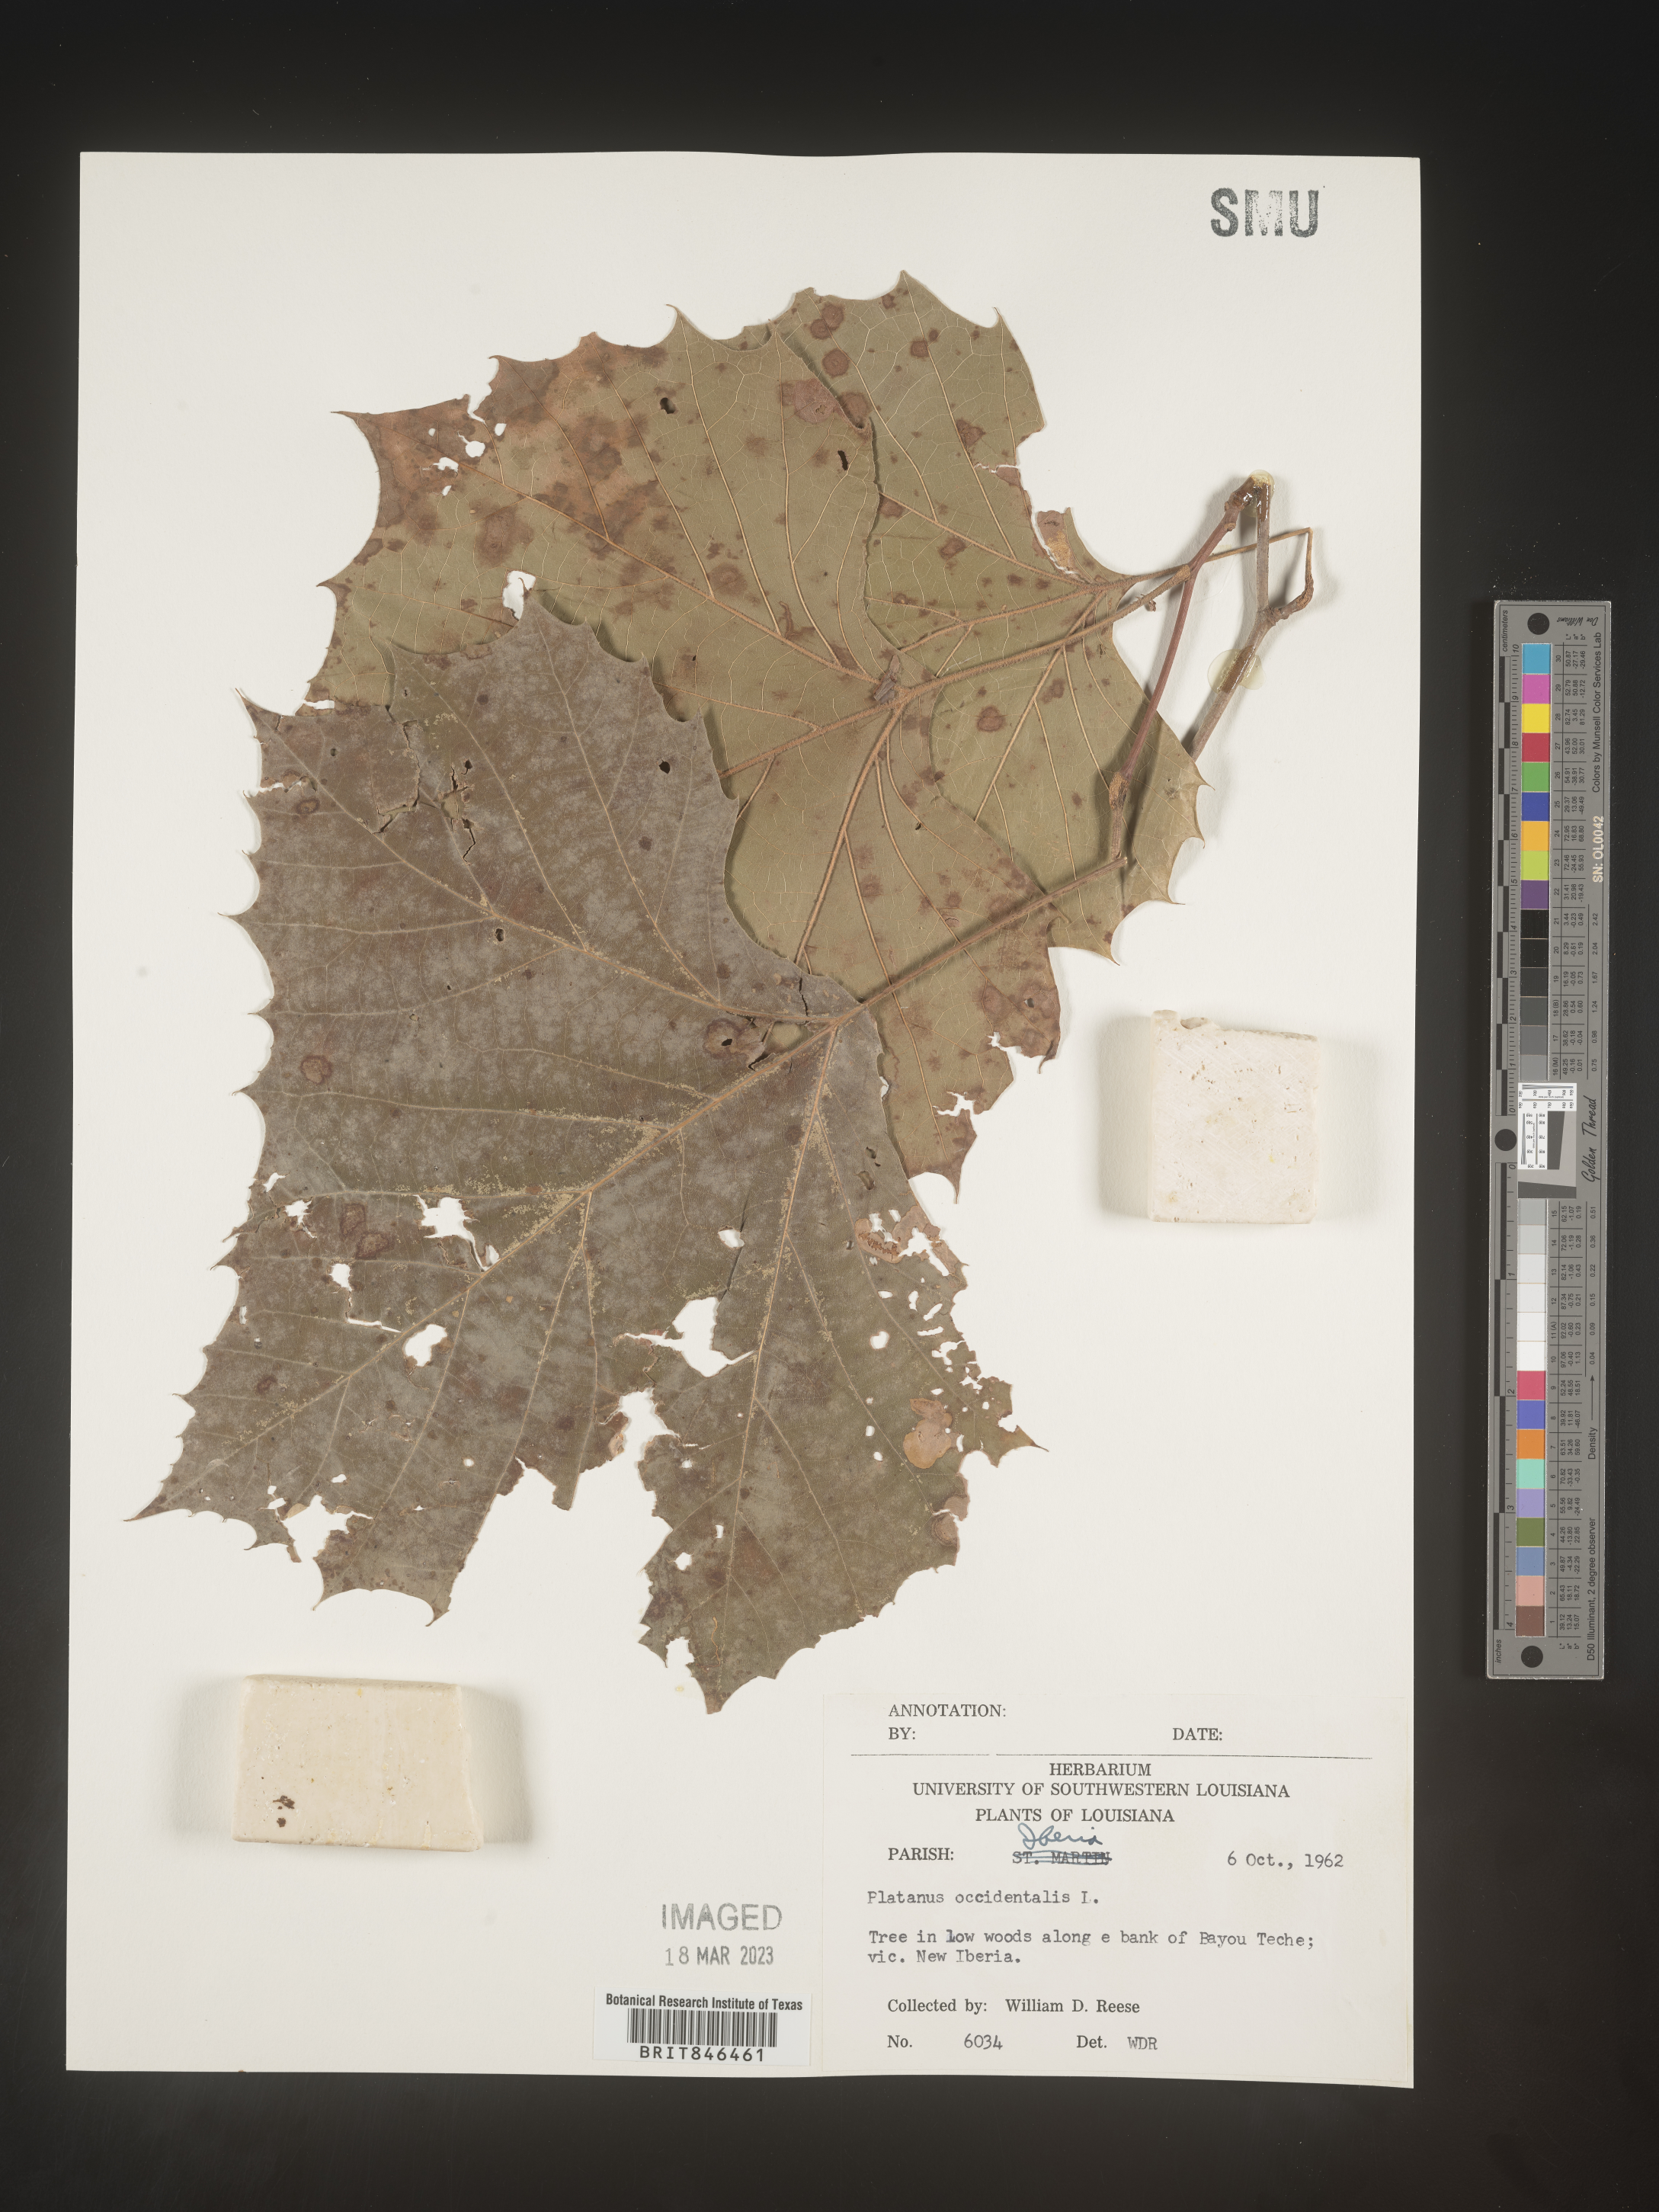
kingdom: Plantae
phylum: Tracheophyta
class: Magnoliopsida
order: Proteales
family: Platanaceae
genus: Platanus
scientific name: Platanus occidentalis
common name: American sycamore
